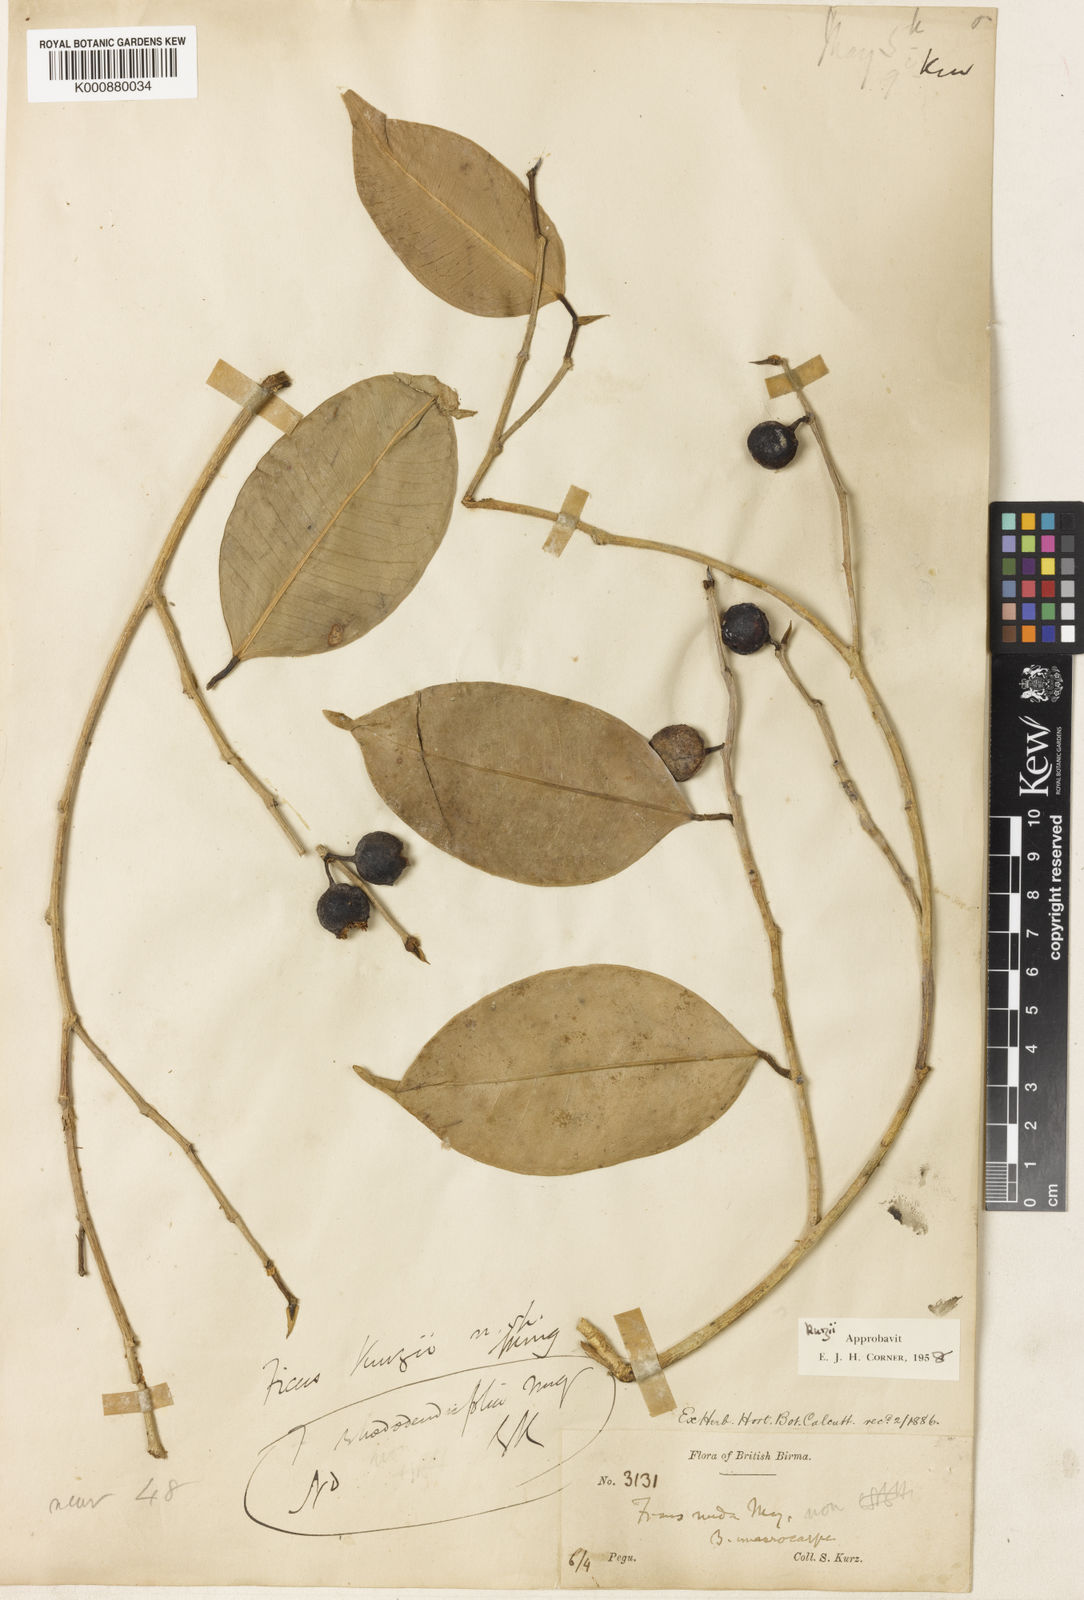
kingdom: Plantae
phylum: Tracheophyta
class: Magnoliopsida
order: Rosales
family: Moraceae
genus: Ficus
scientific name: Ficus kurzii
